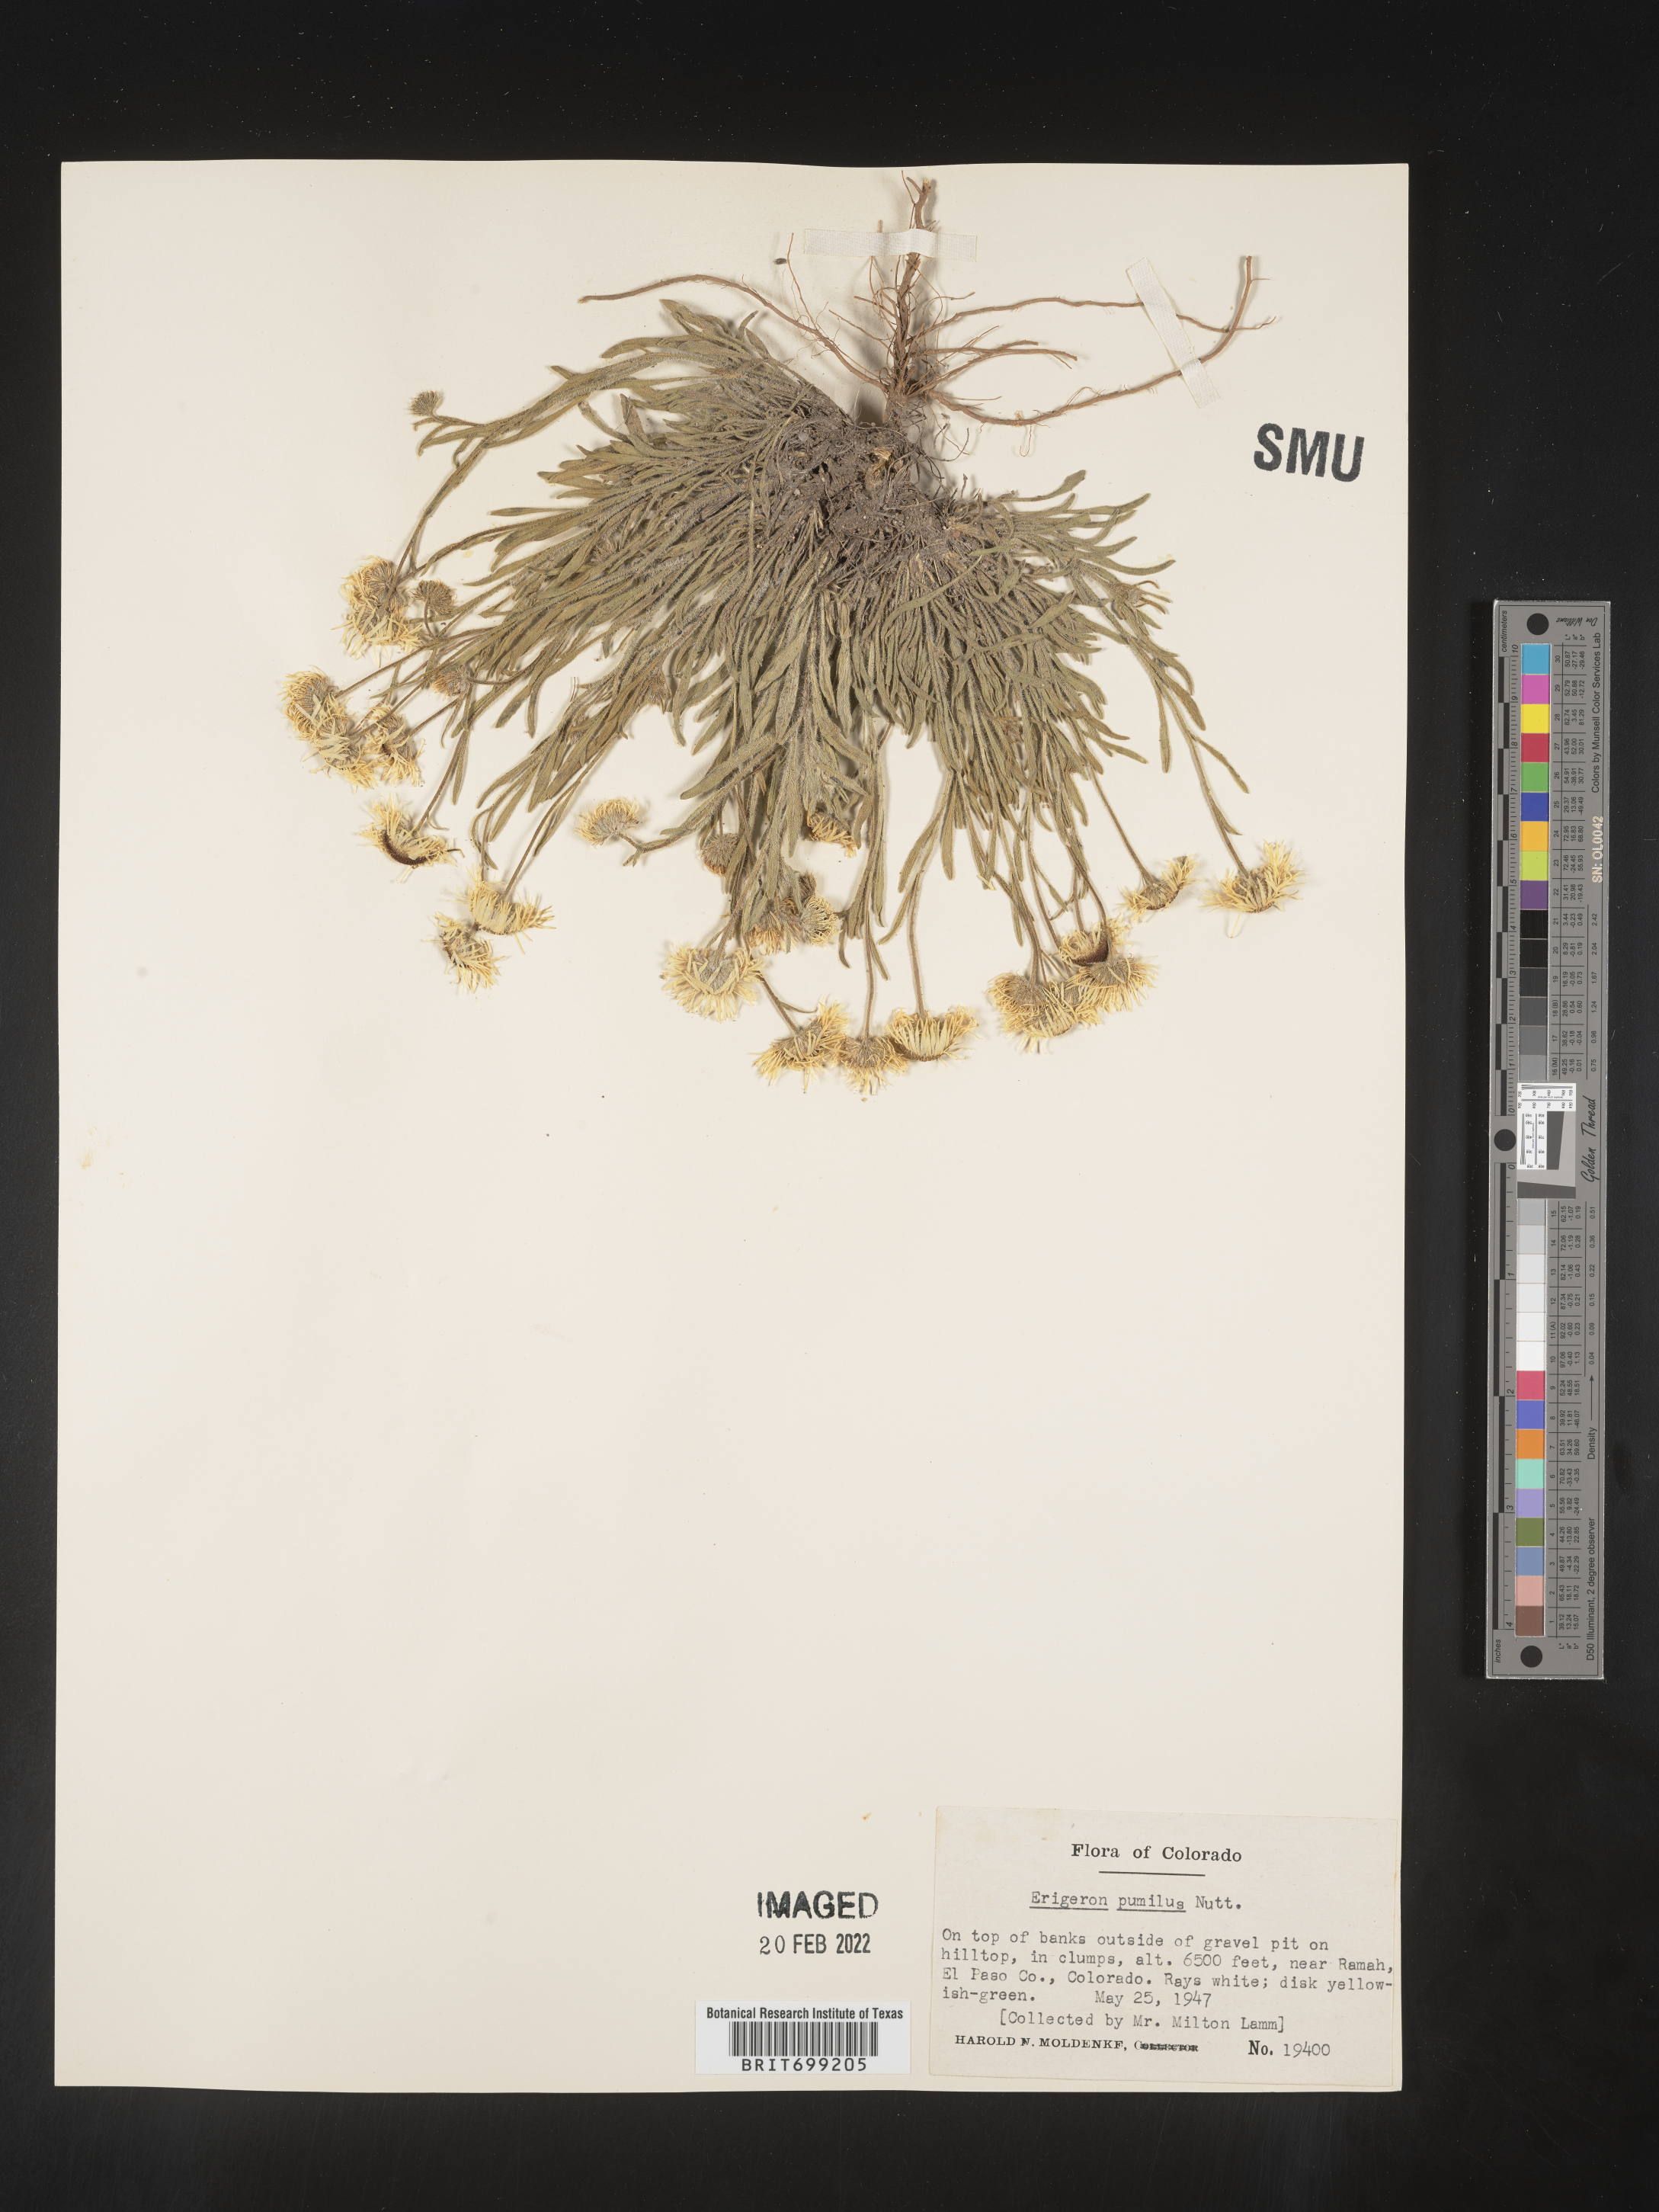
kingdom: Plantae
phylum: Tracheophyta
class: Magnoliopsida
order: Asterales
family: Asteraceae
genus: Erigeron
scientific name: Erigeron pumilus
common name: Shaggy fleabane
